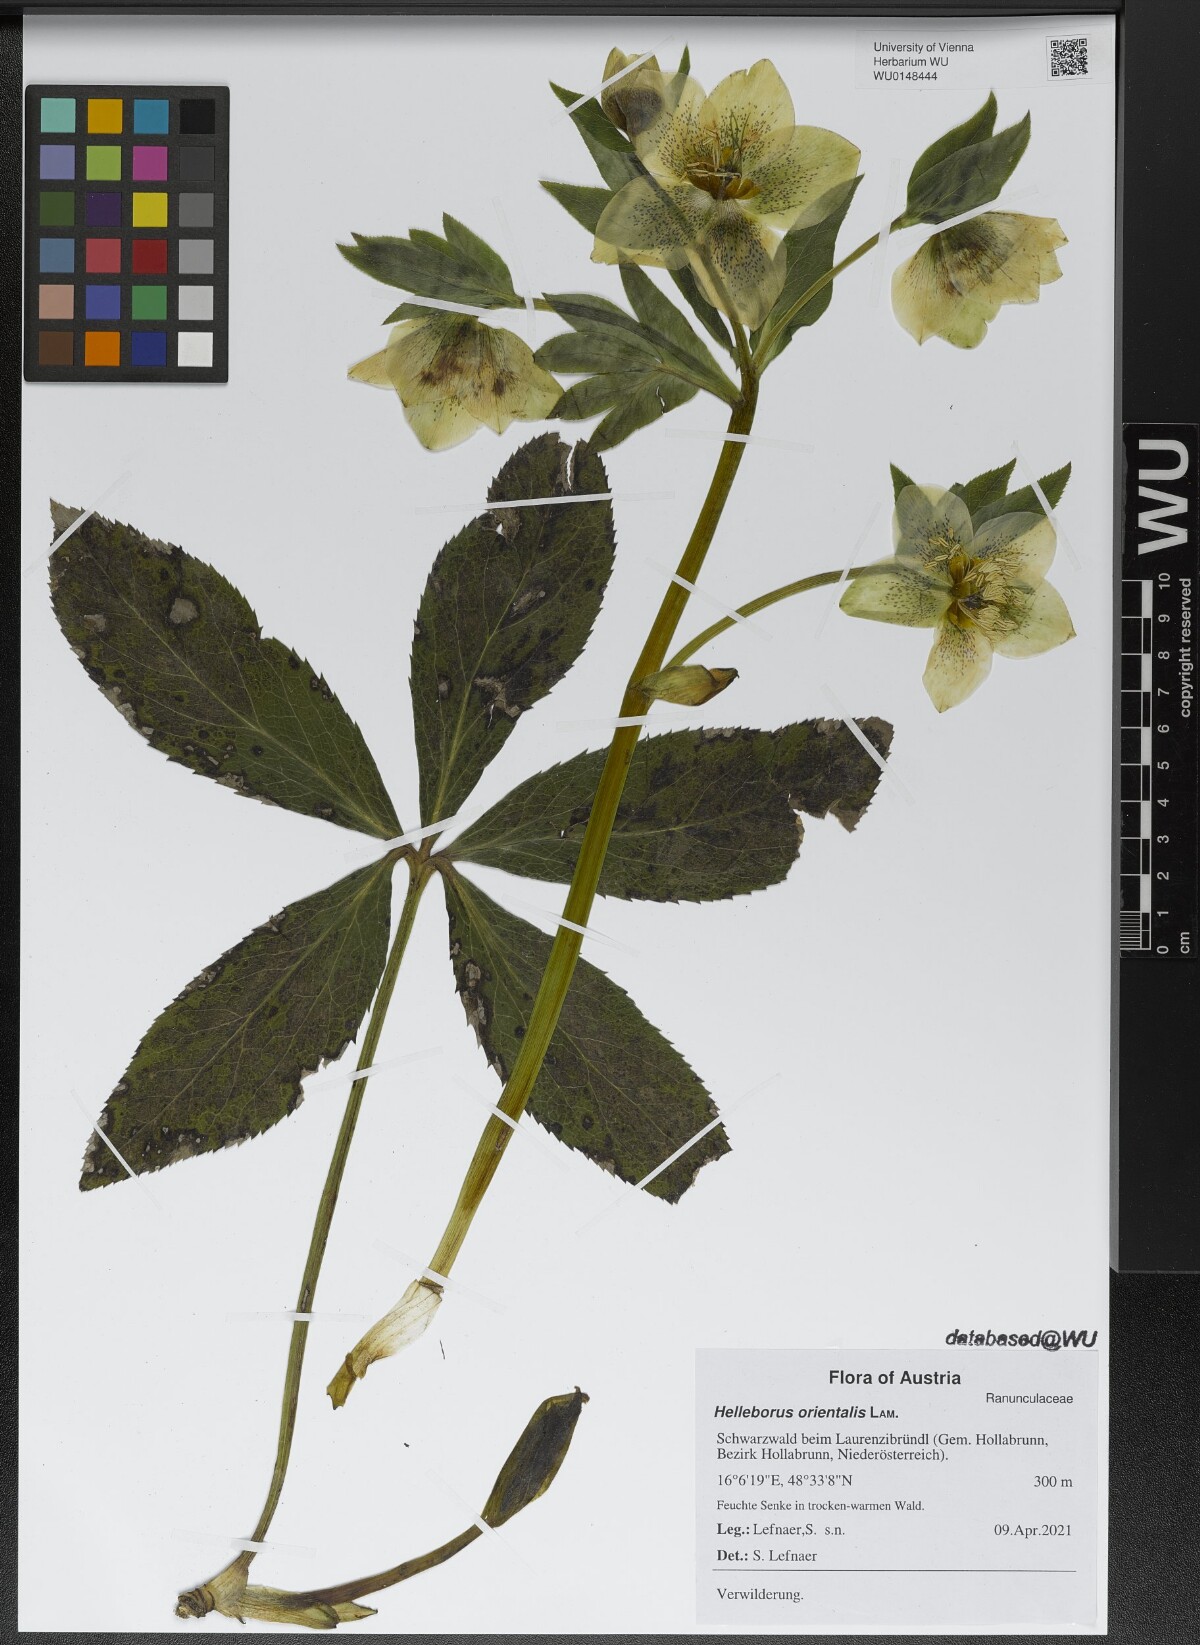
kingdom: Plantae
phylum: Tracheophyta
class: Magnoliopsida
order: Ranunculales
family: Ranunculaceae
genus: Helleborus
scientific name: Helleborus orientalis
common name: Lenten-rose
